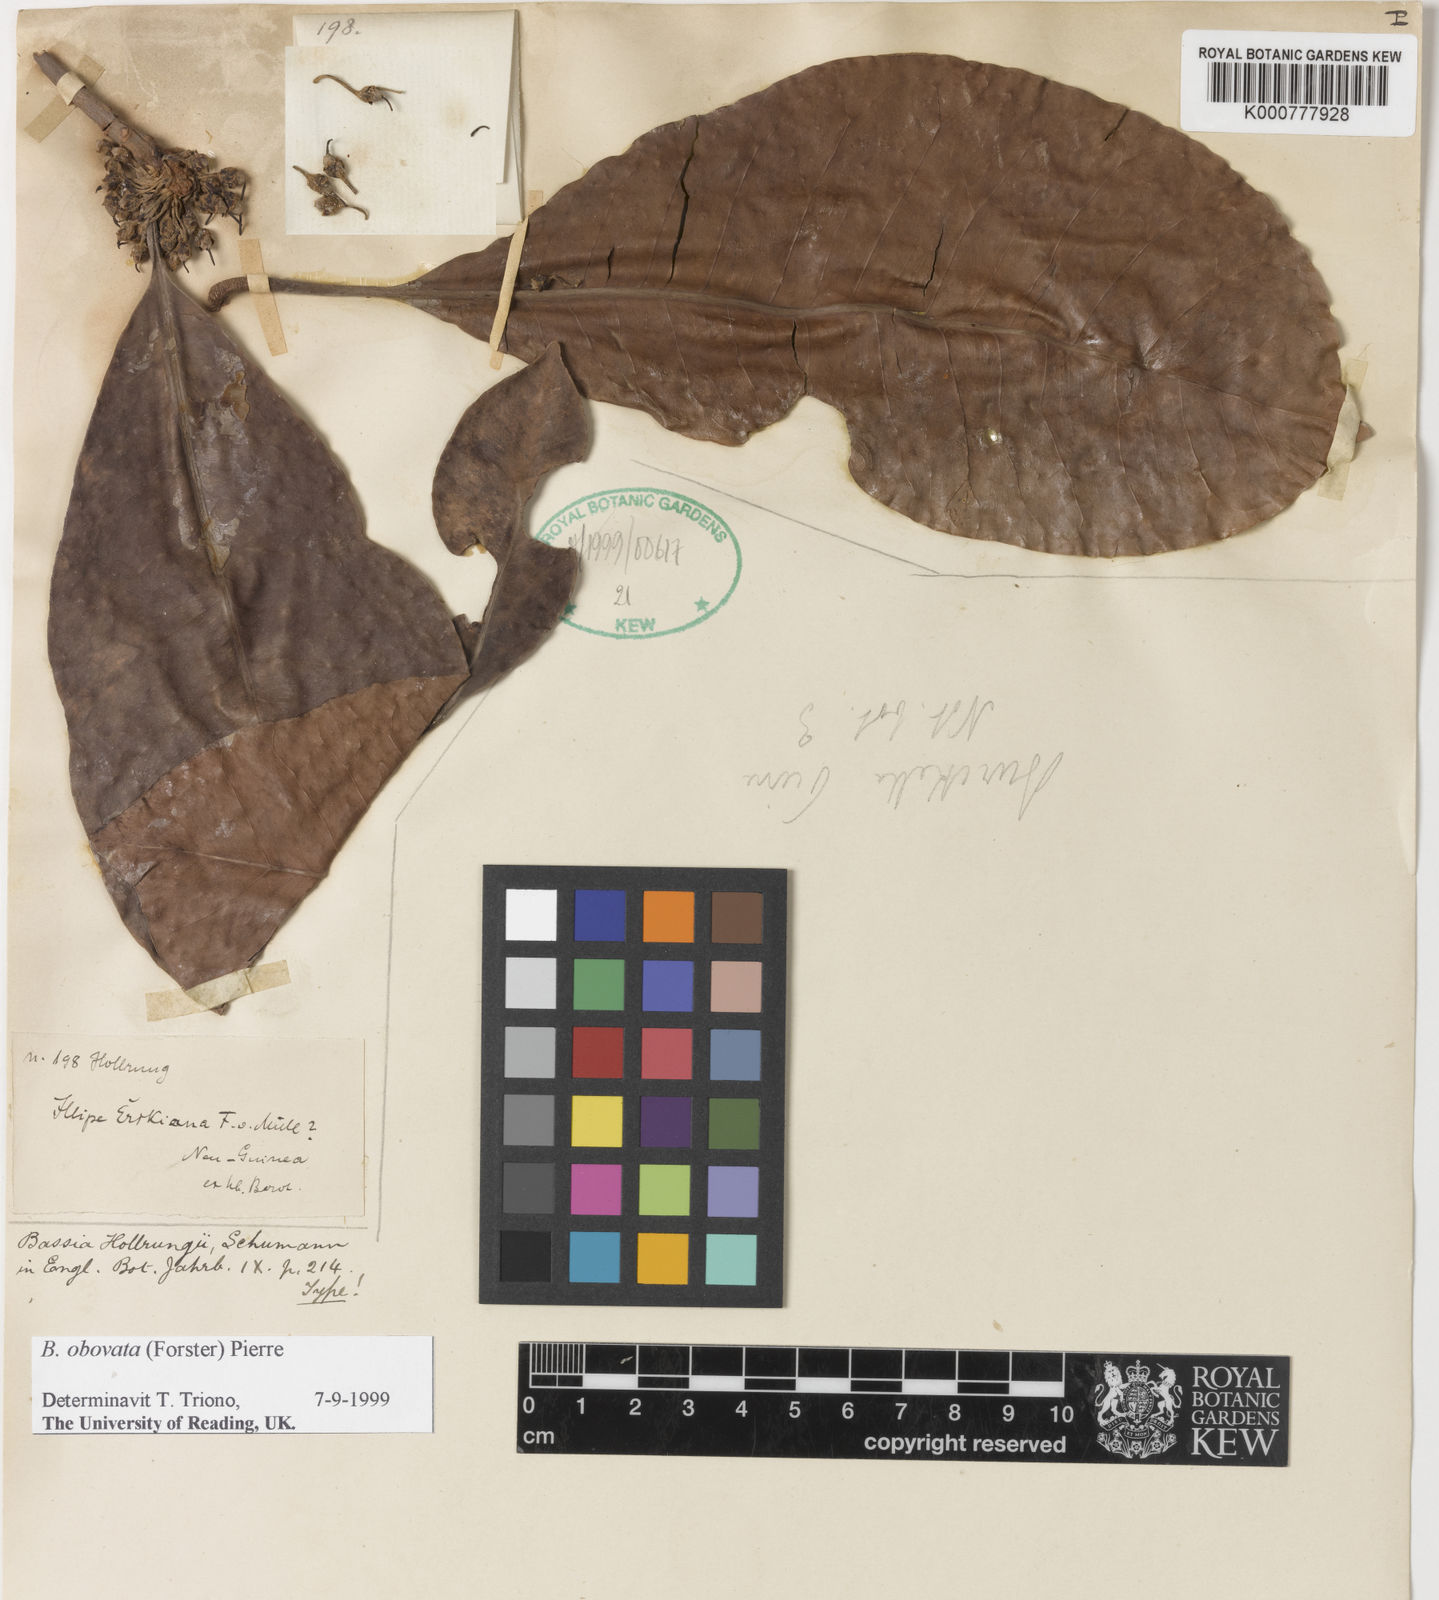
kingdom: Plantae
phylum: Tracheophyta
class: Magnoliopsida
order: Ericales
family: Sapotaceae
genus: Burckella
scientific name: Burckella obovata
